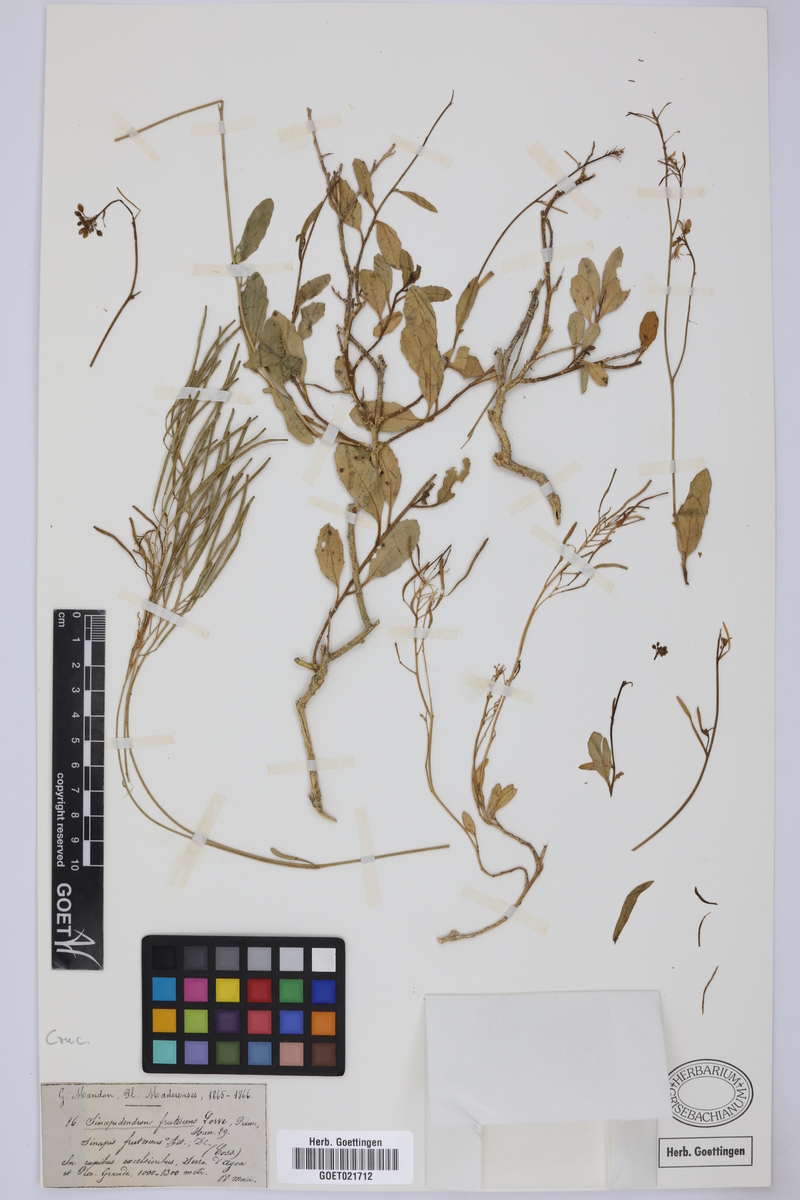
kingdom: Plantae
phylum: Tracheophyta
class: Magnoliopsida
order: Brassicales
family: Brassicaceae
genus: Sinapidendron
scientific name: Sinapidendron frutescens
